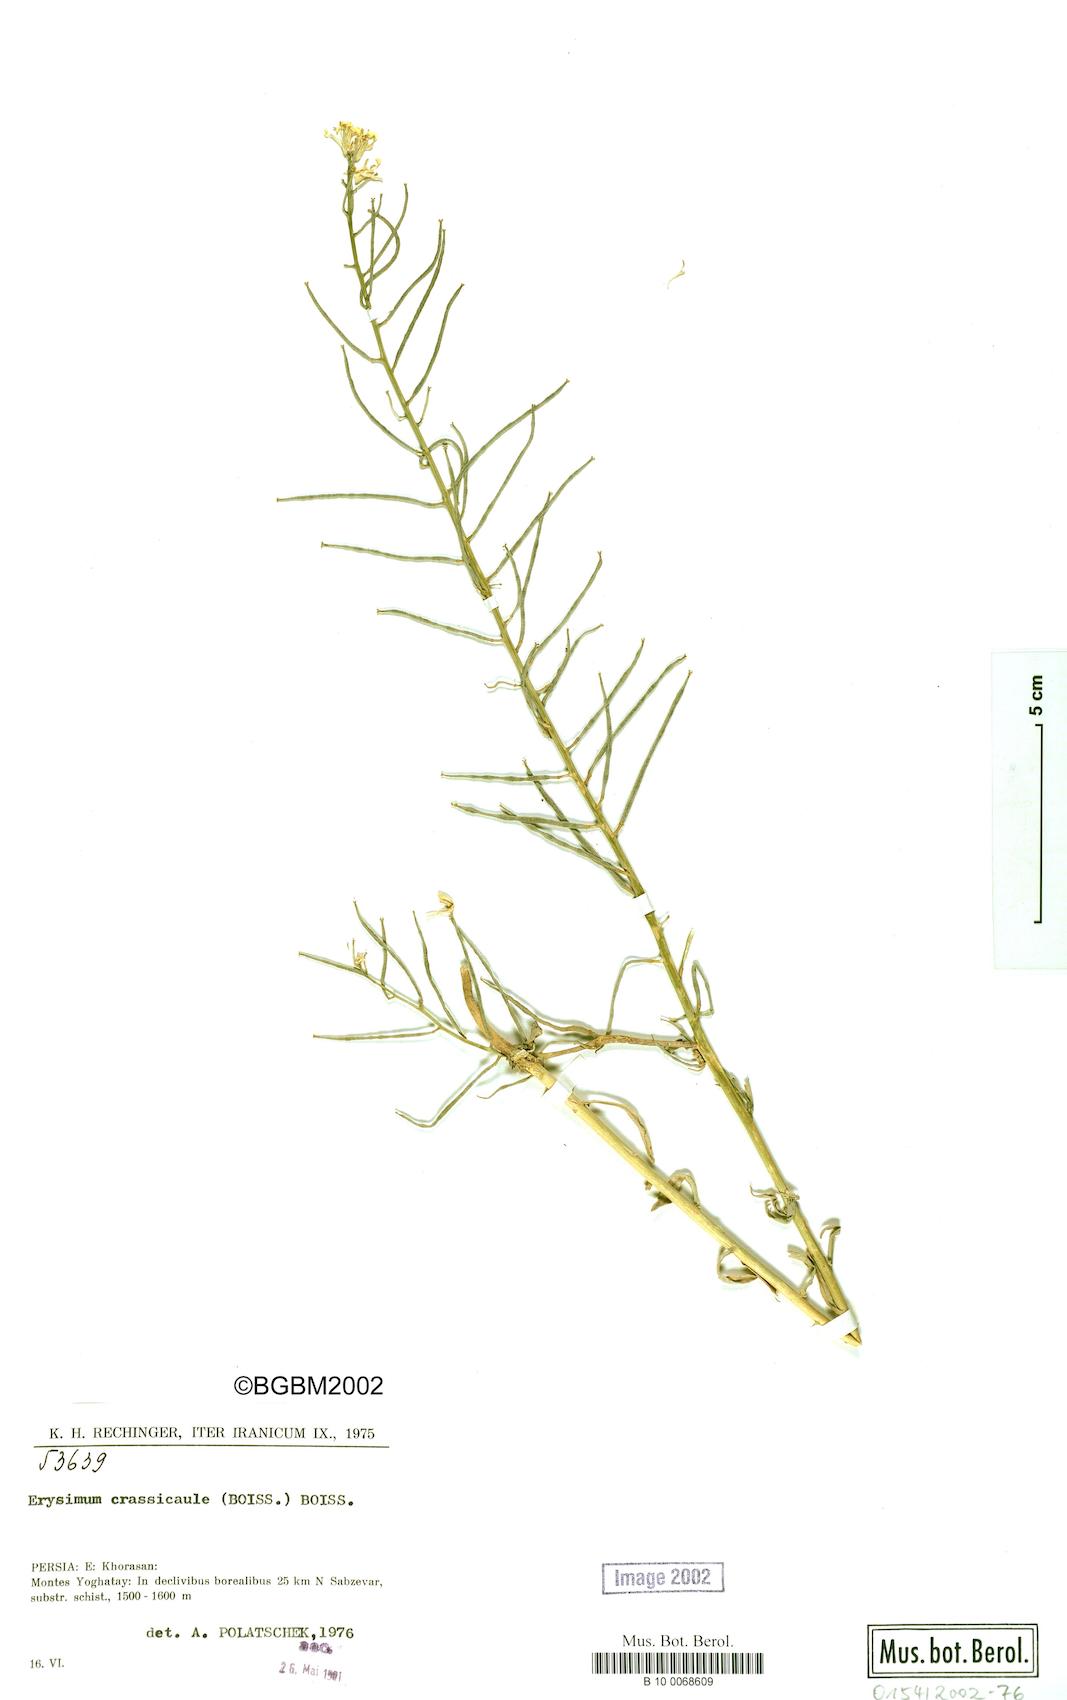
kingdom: Plantae
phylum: Tracheophyta
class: Magnoliopsida
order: Brassicales
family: Brassicaceae
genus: Erysimum
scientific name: Erysimum crassicaule
